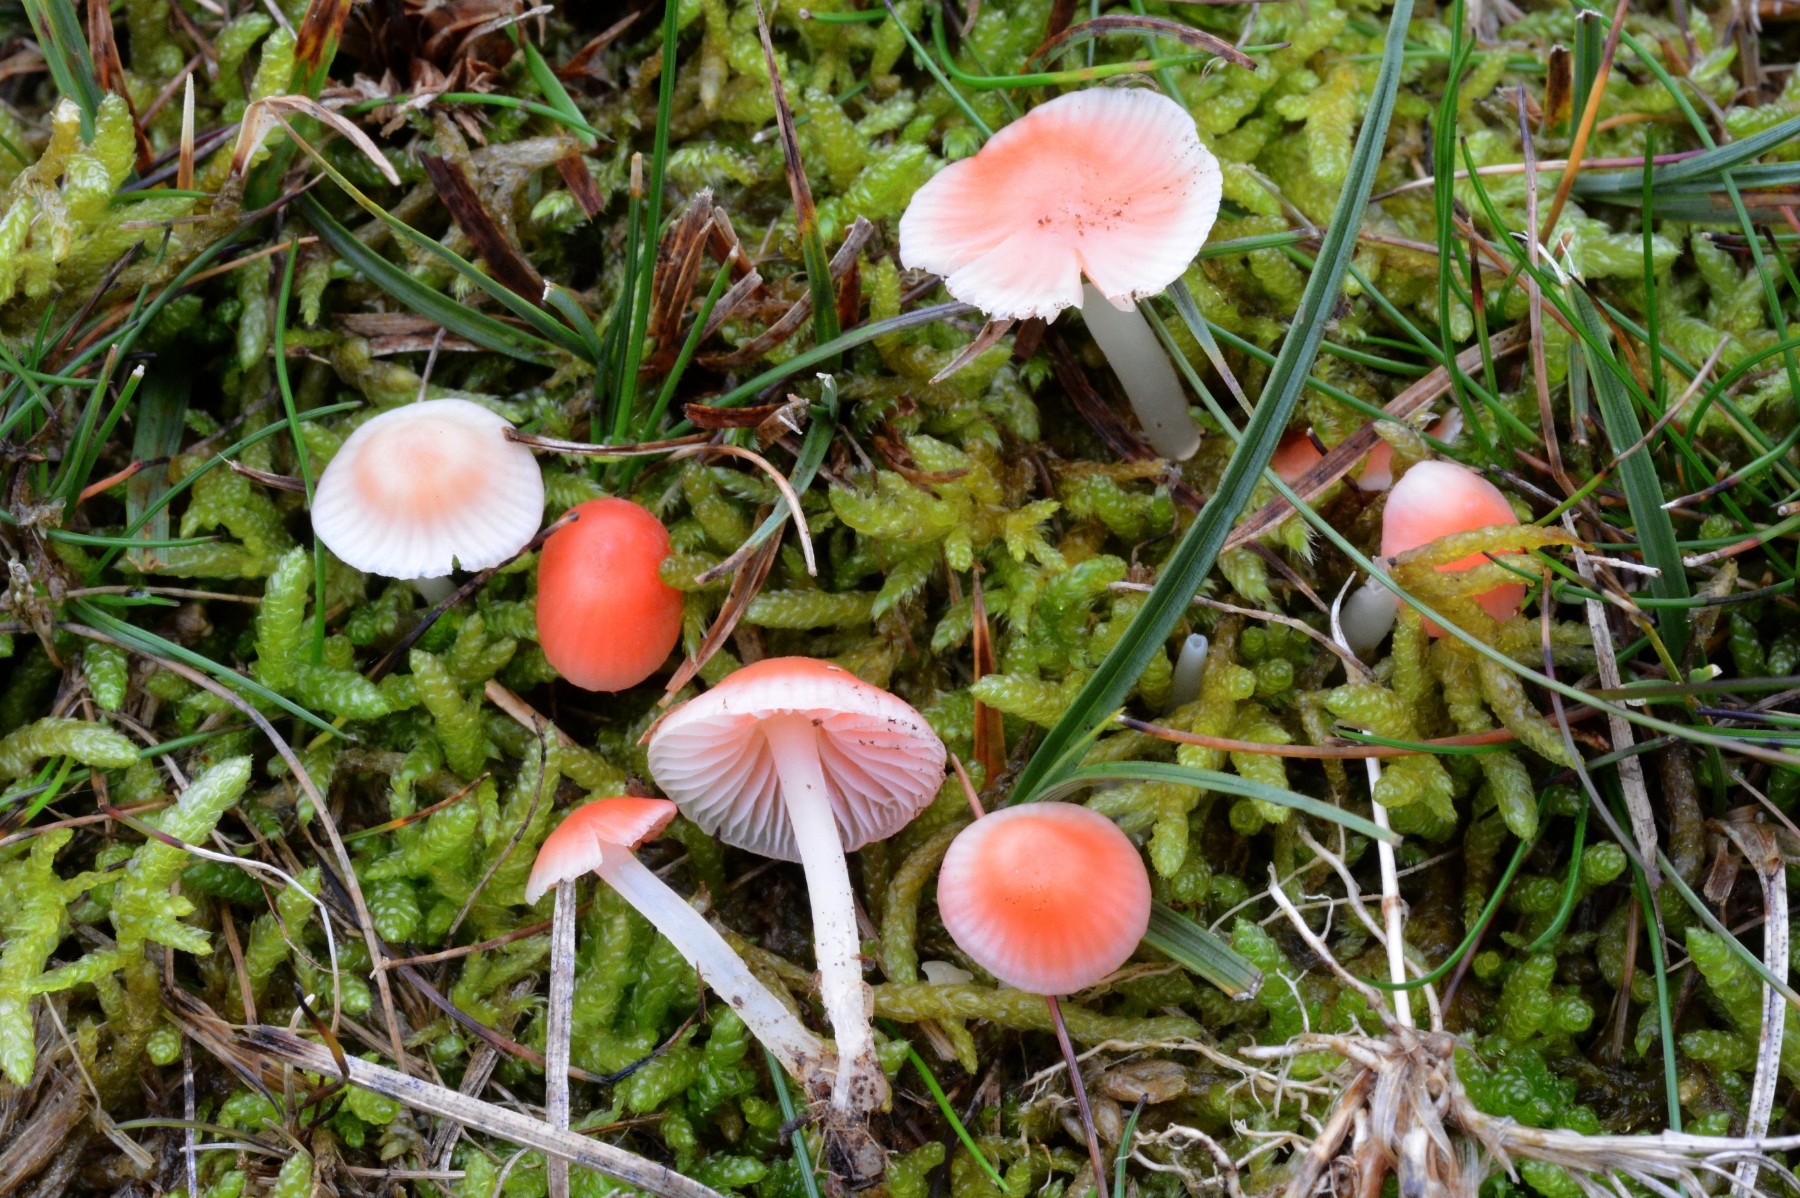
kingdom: Fungi
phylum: Basidiomycota
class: Agaricomycetes
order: Agaricales
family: Mycenaceae
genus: Atheniella
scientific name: Atheniella adonis
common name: rønnerød huesvamp
